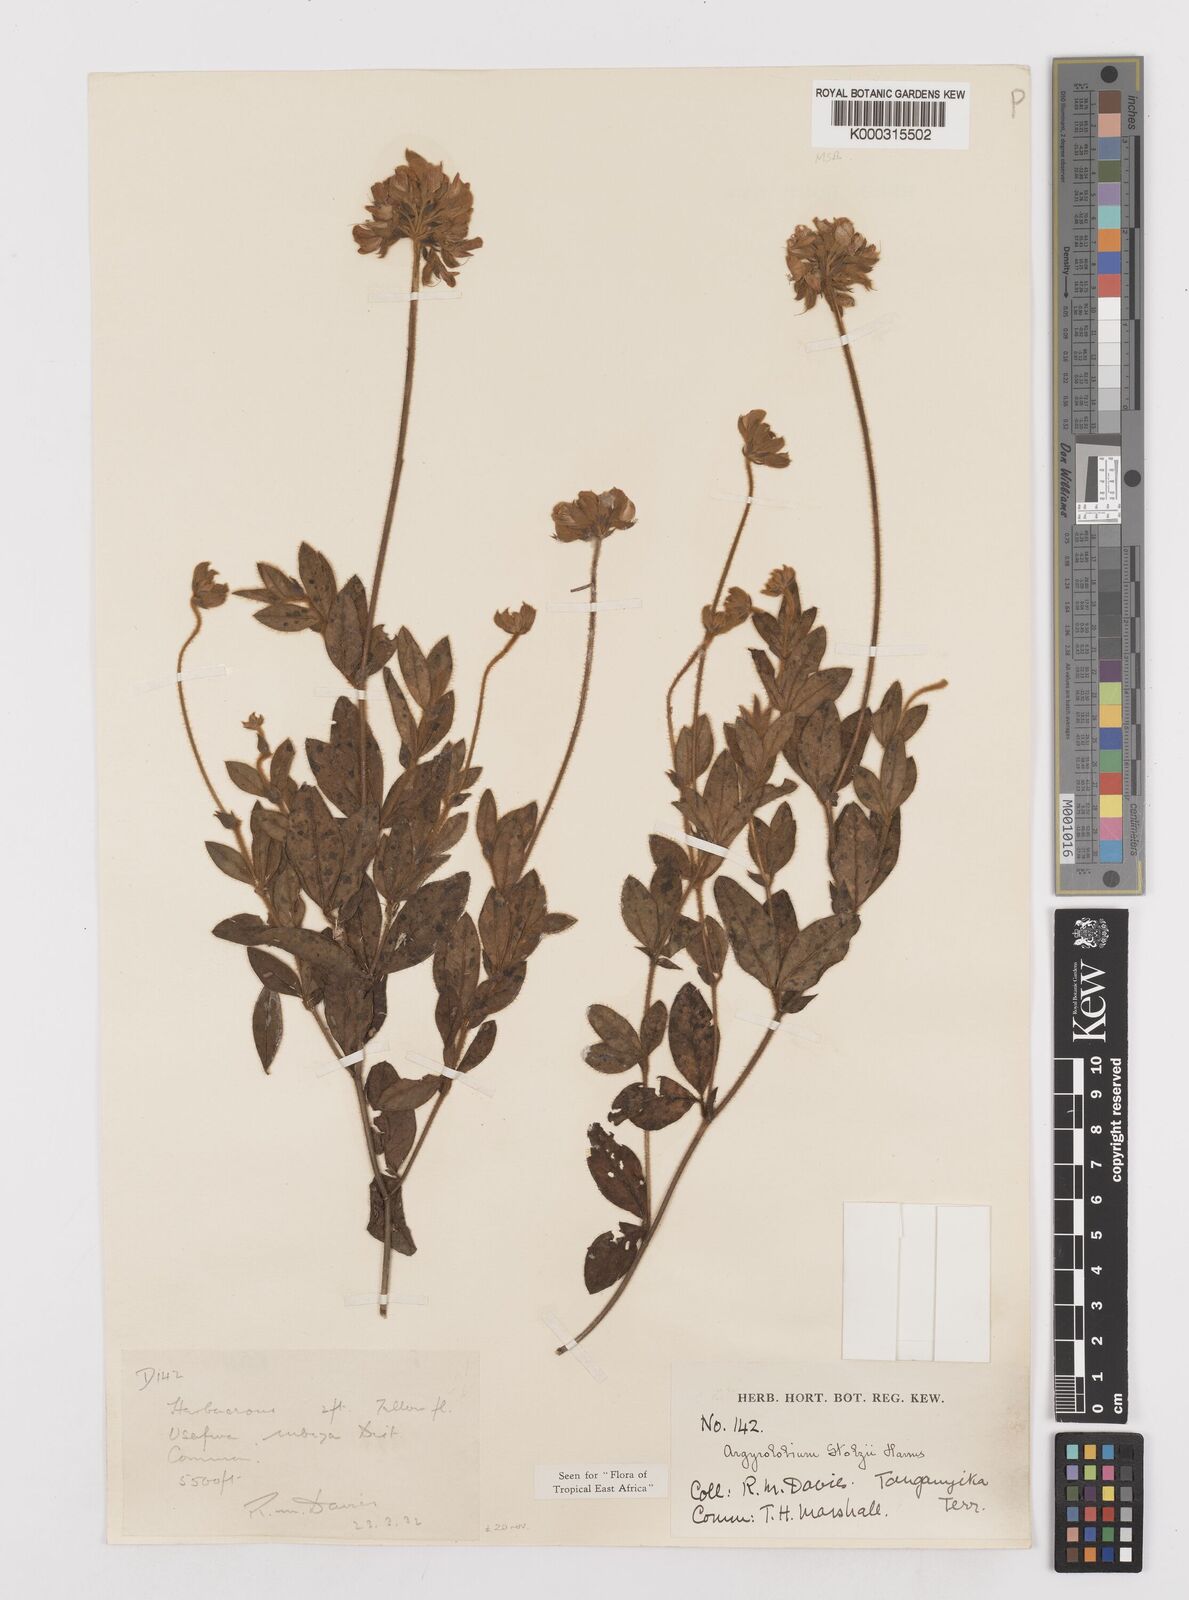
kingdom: Plantae
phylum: Tracheophyta
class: Magnoliopsida
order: Fabales
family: Fabaceae
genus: Argyrolobium
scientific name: Argyrolobium stolzii
